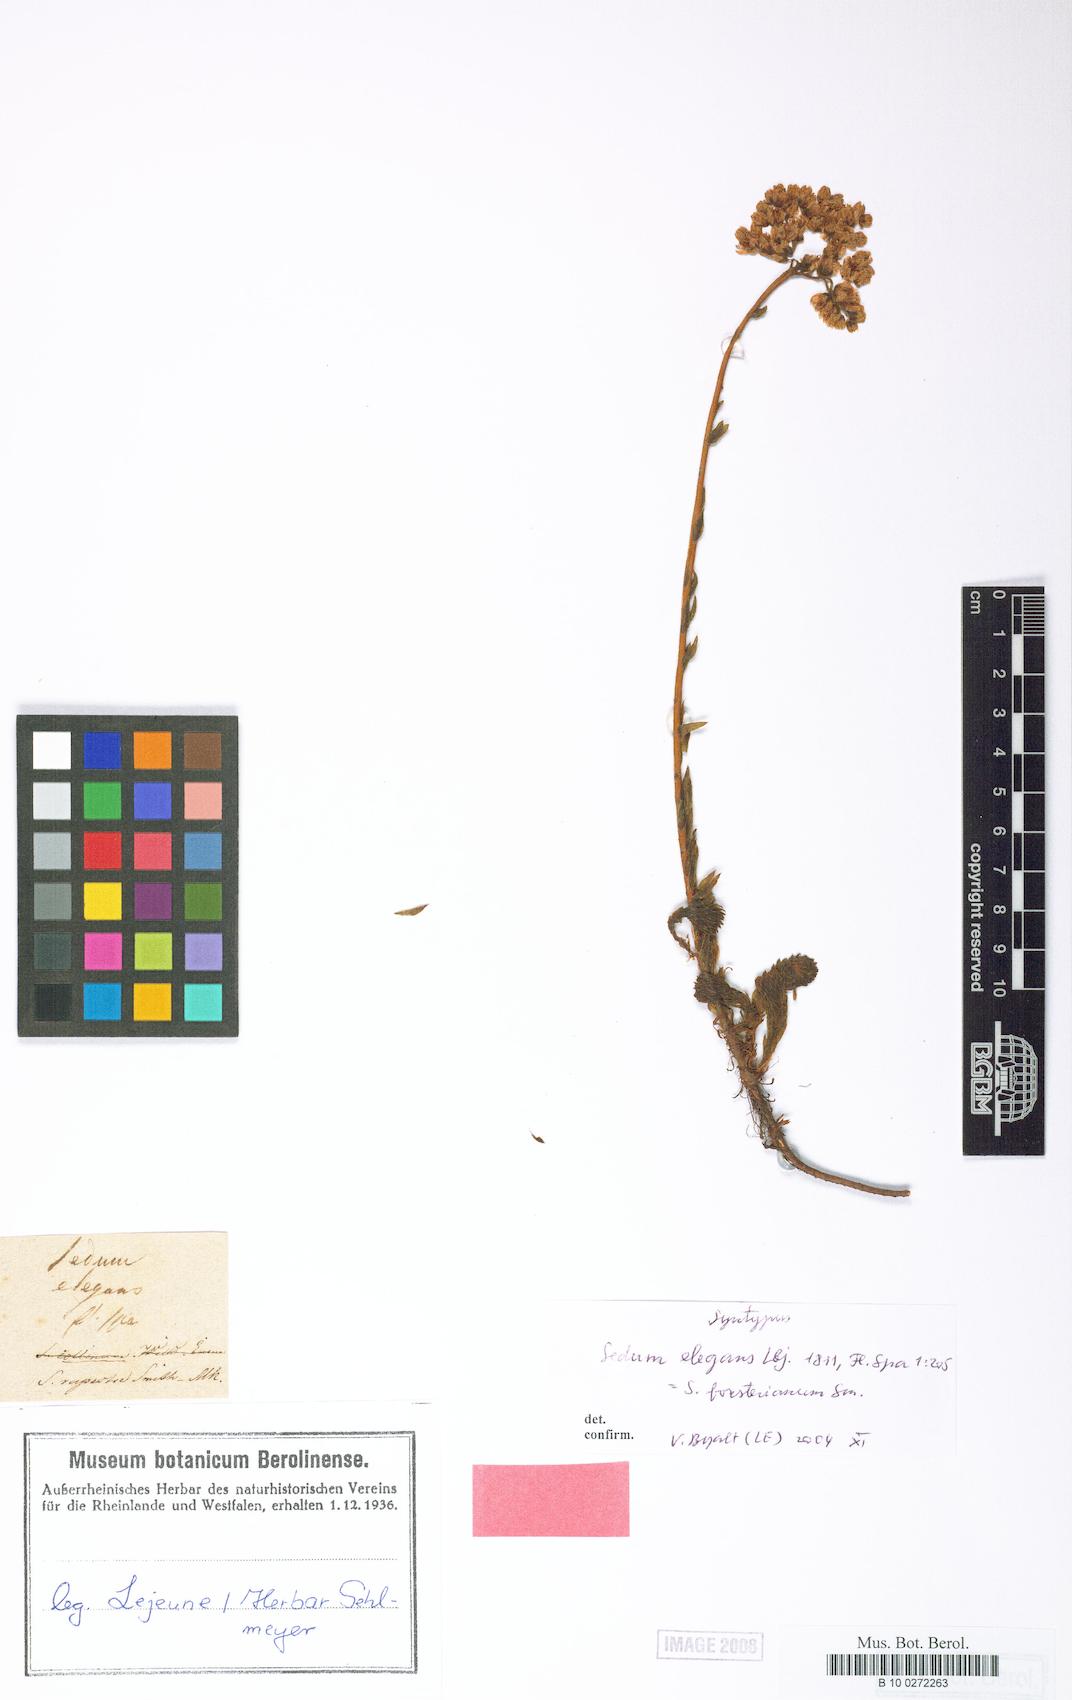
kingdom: Plantae
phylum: Tracheophyta
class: Magnoliopsida
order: Saxifragales
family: Crassulaceae
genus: Petrosedum
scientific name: Petrosedum forsterianum
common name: Forster's stonecrop
